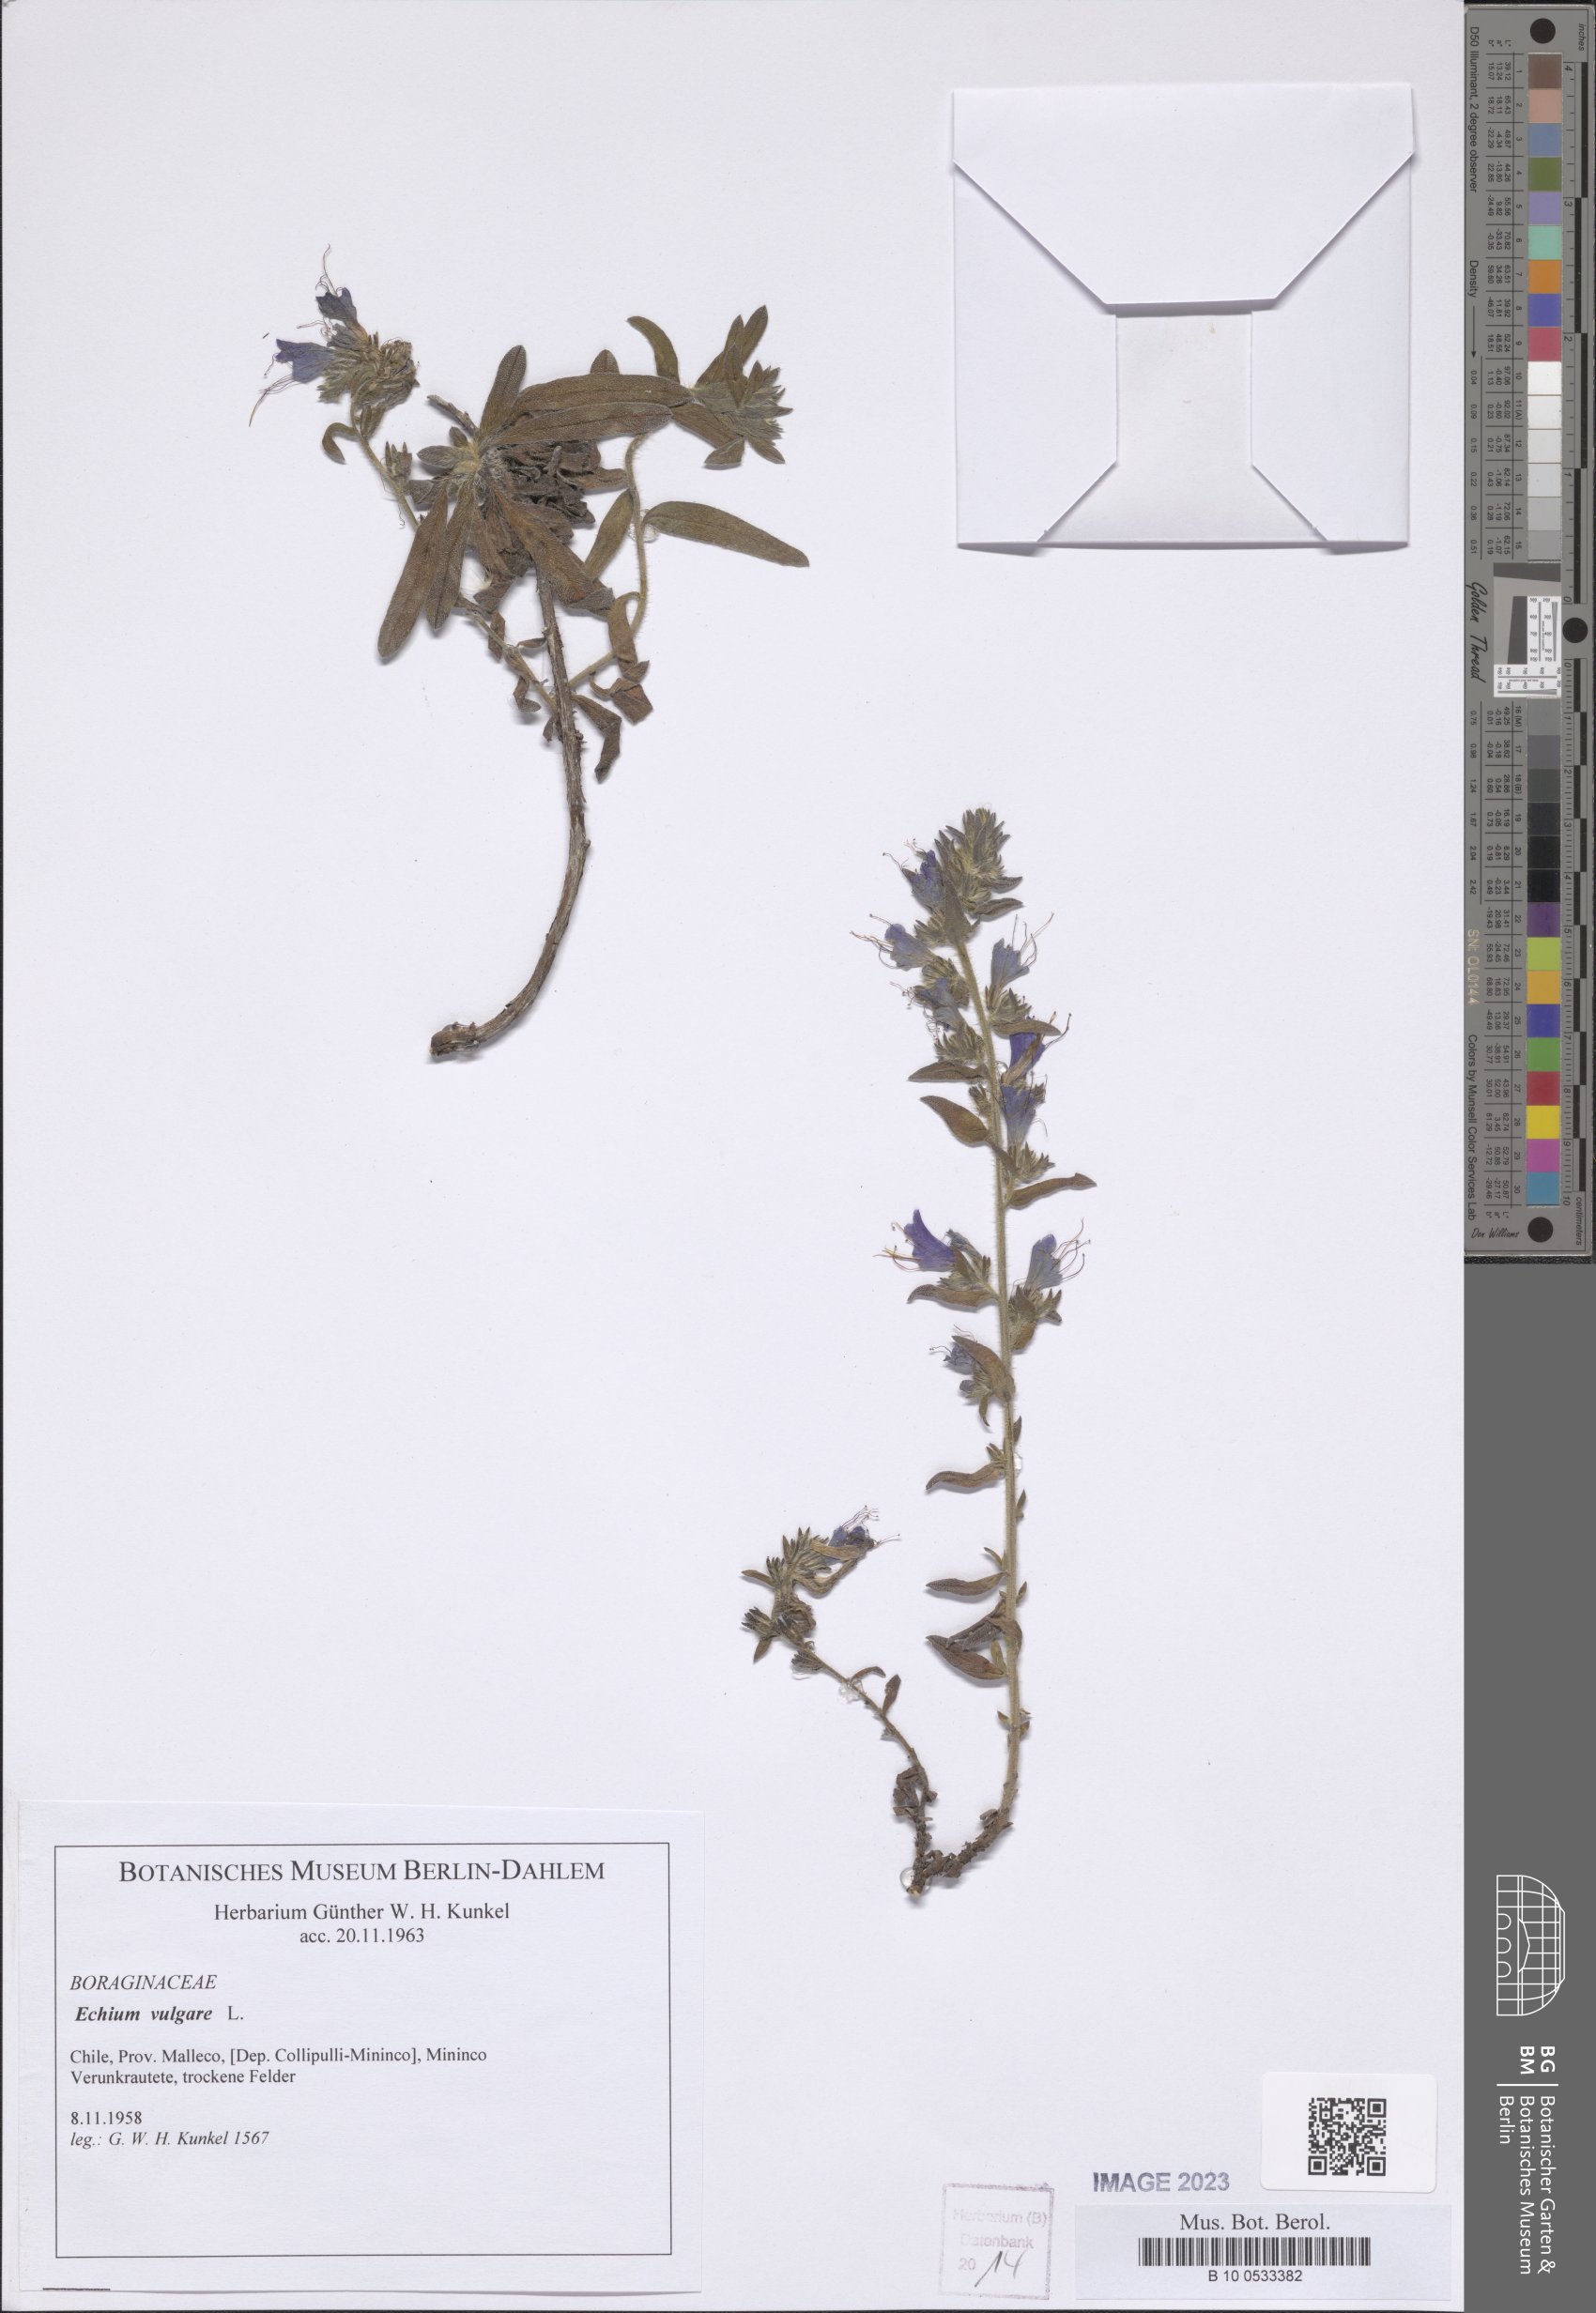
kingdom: Plantae
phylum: Tracheophyta
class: Magnoliopsida
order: Boraginales
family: Boraginaceae
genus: Echium
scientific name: Echium vulgare
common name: Common viper's bugloss
